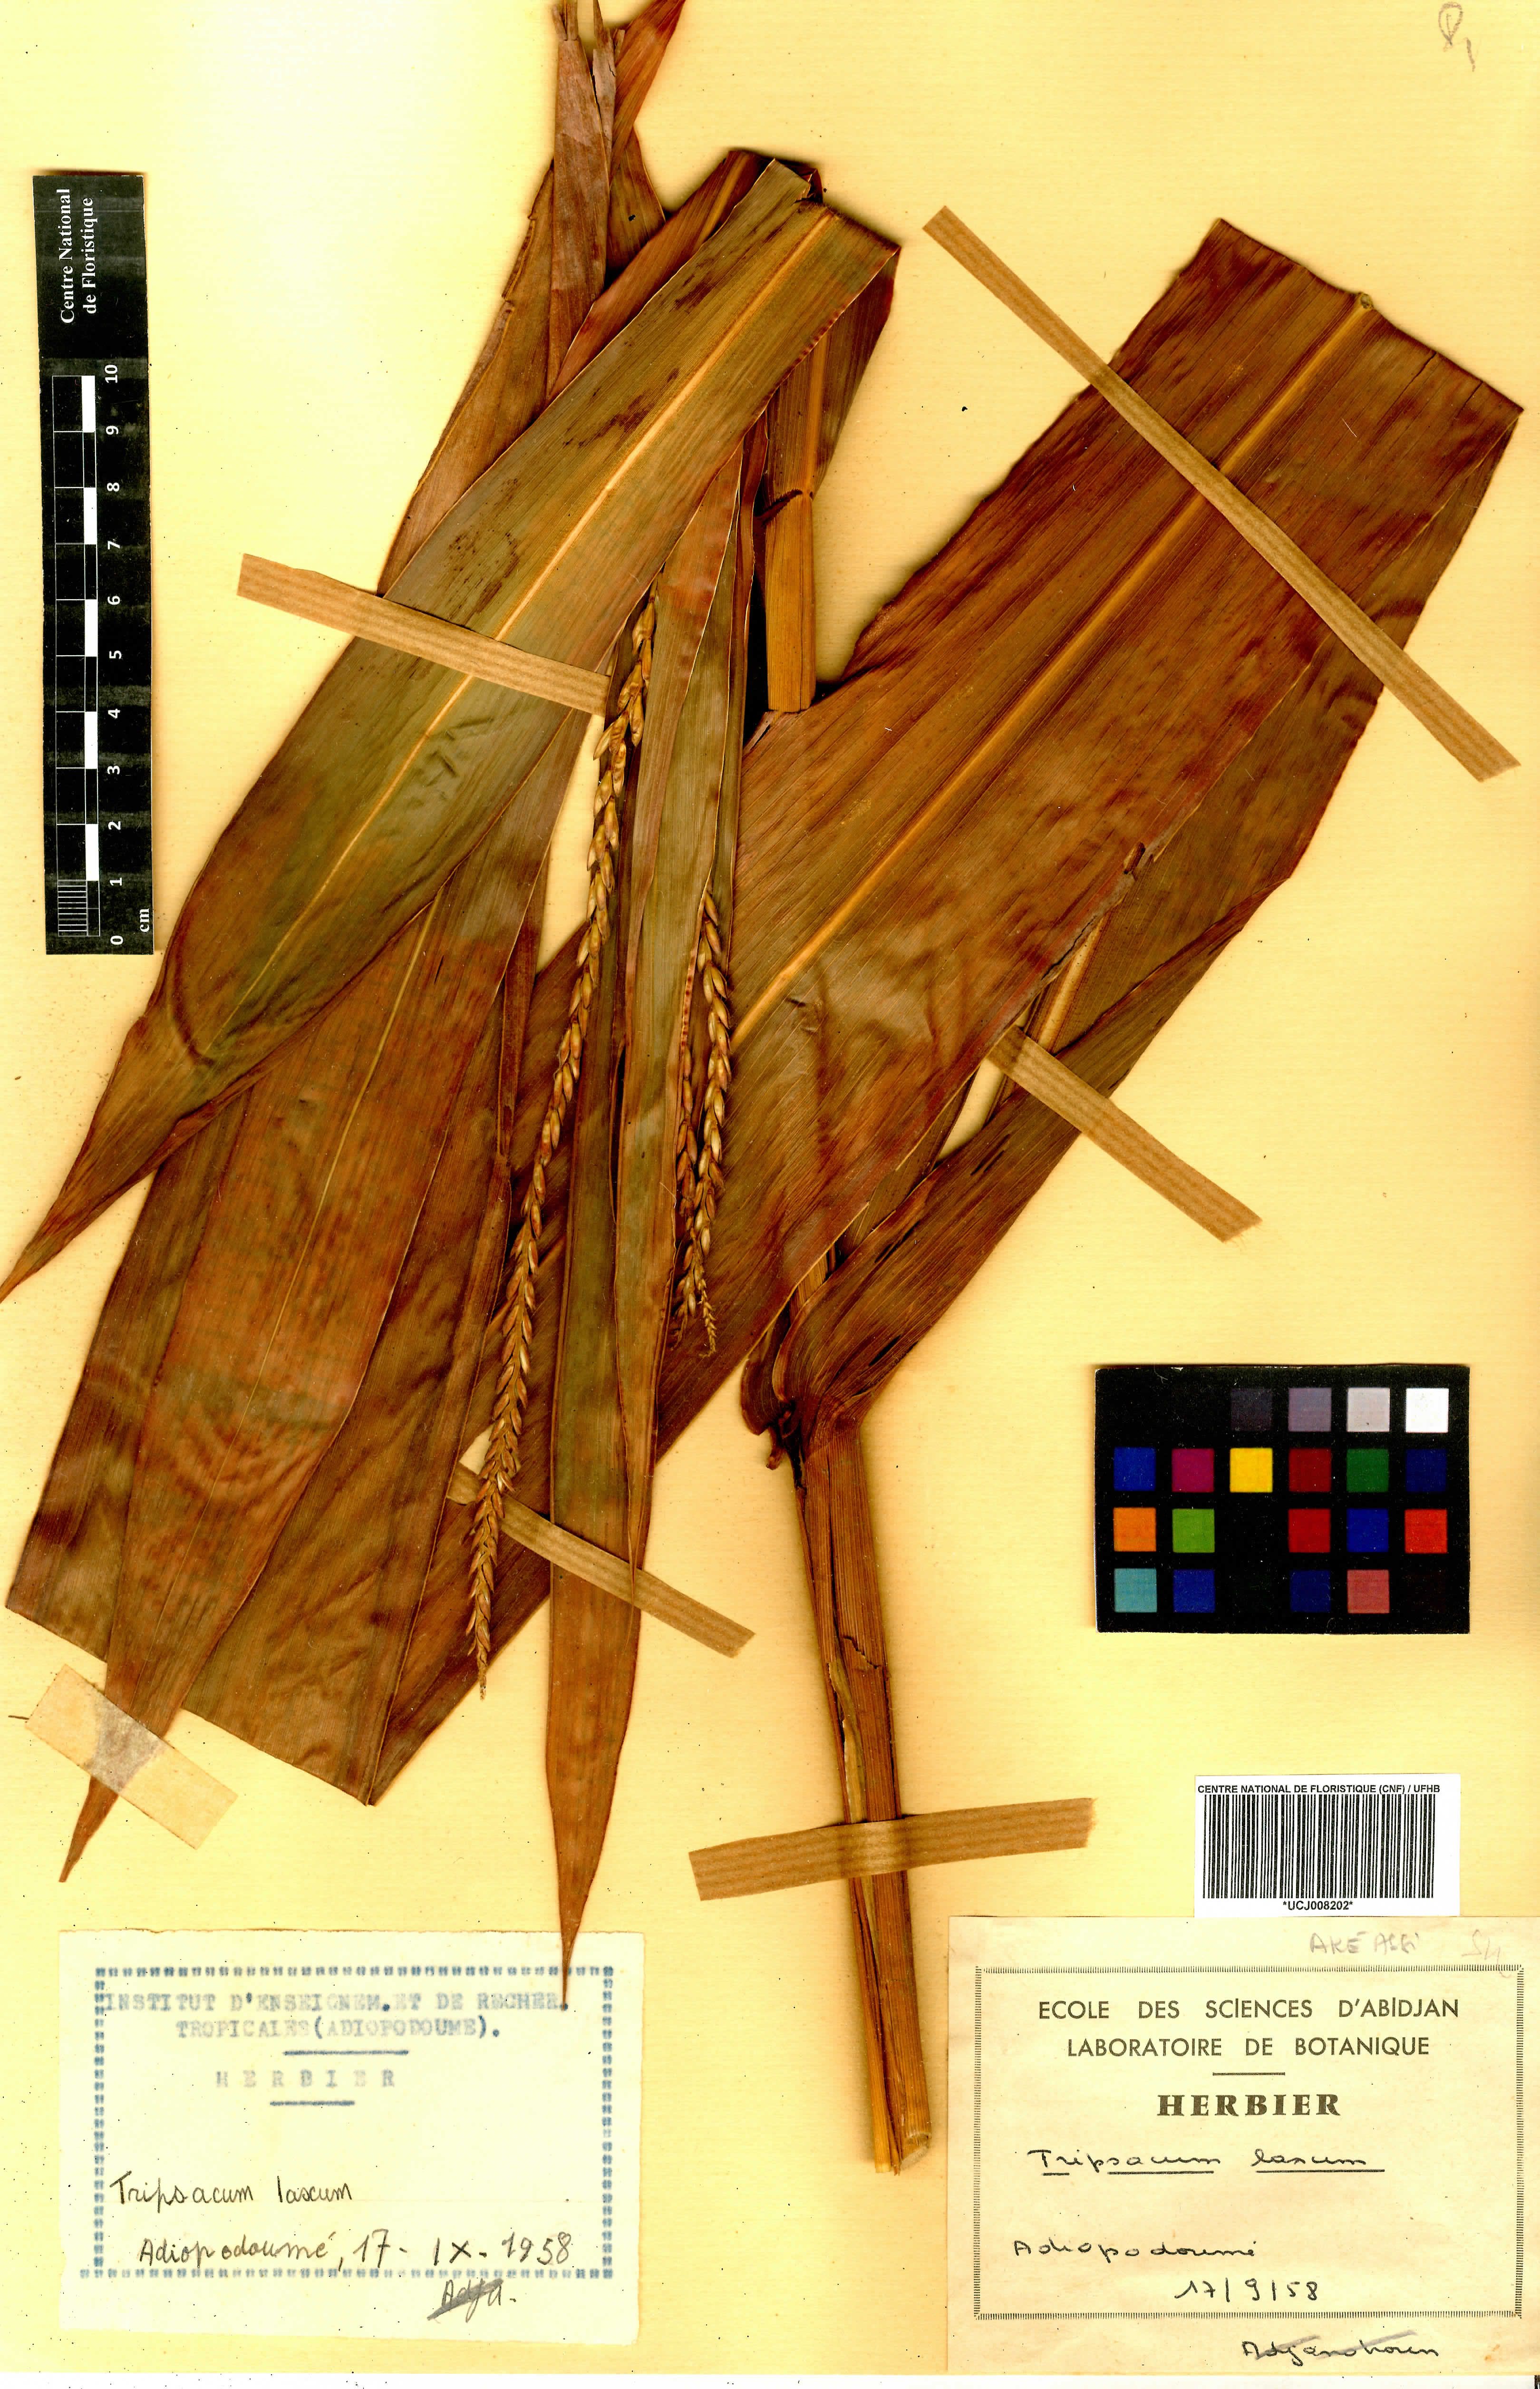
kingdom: Plantae
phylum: Tracheophyta
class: Liliopsida
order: Poales
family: Poaceae
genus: Tripsacum
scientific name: Tripsacum laxum
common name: Grama-guatemala
